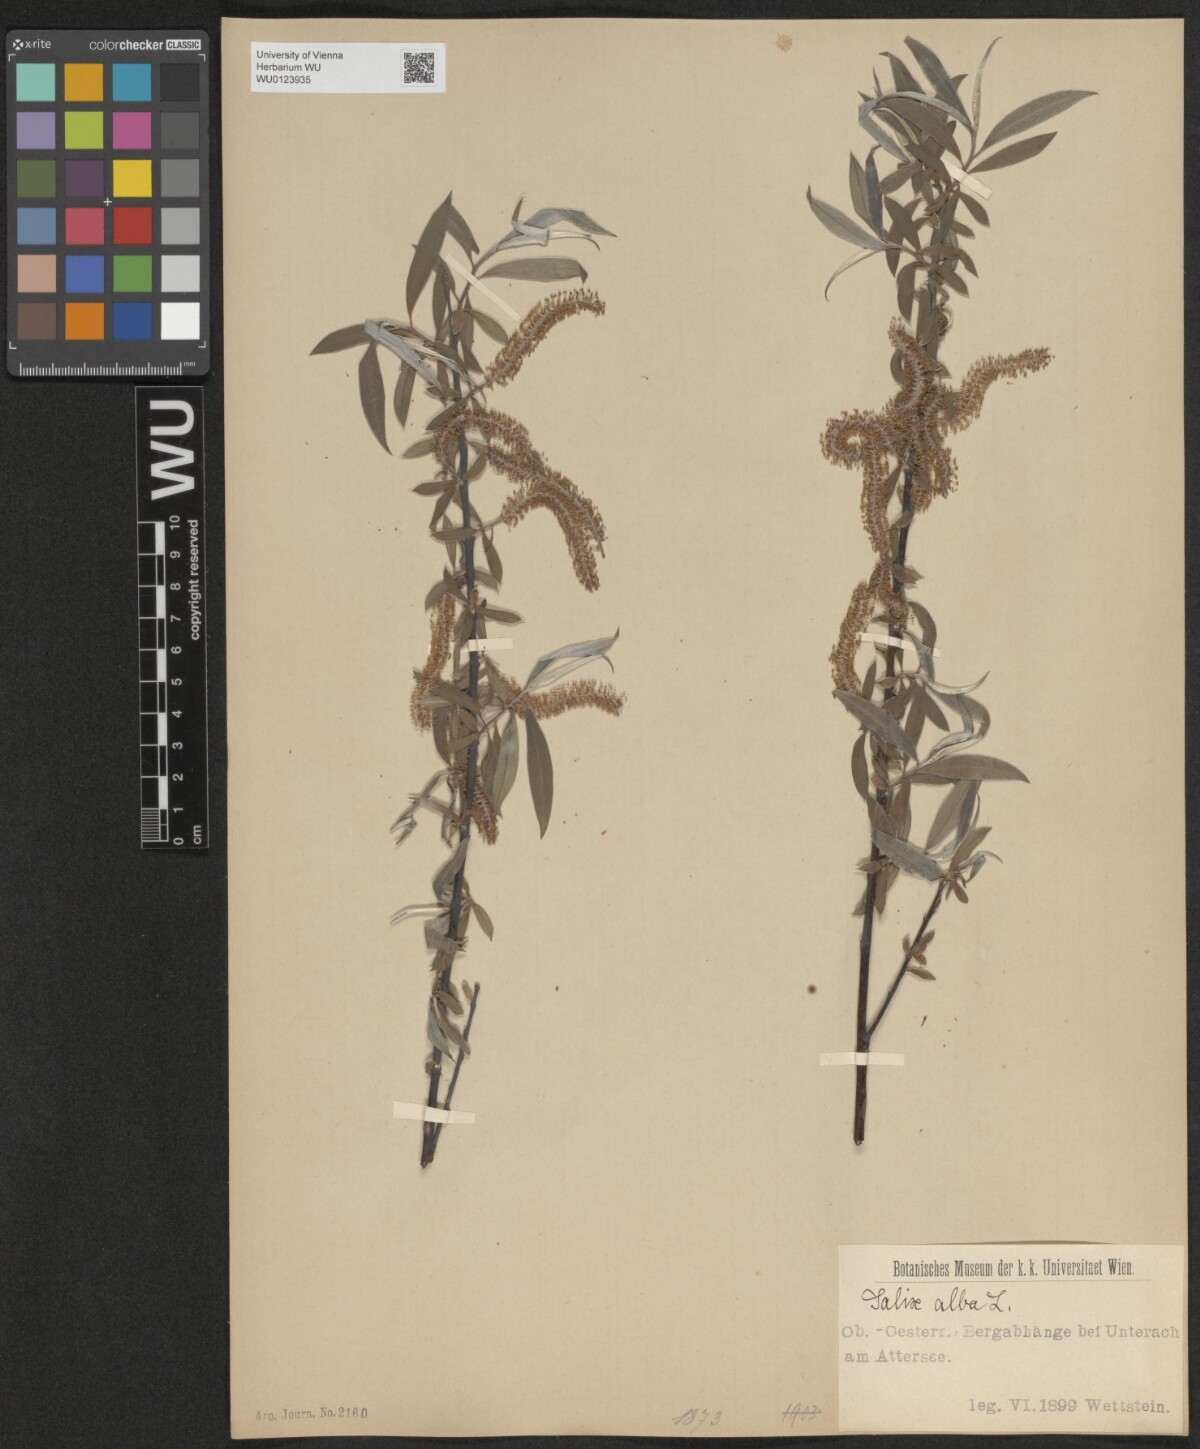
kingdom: Plantae
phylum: Tracheophyta
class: Magnoliopsida
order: Malpighiales
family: Salicaceae
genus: Salix
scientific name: Salix alba
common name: White willow
